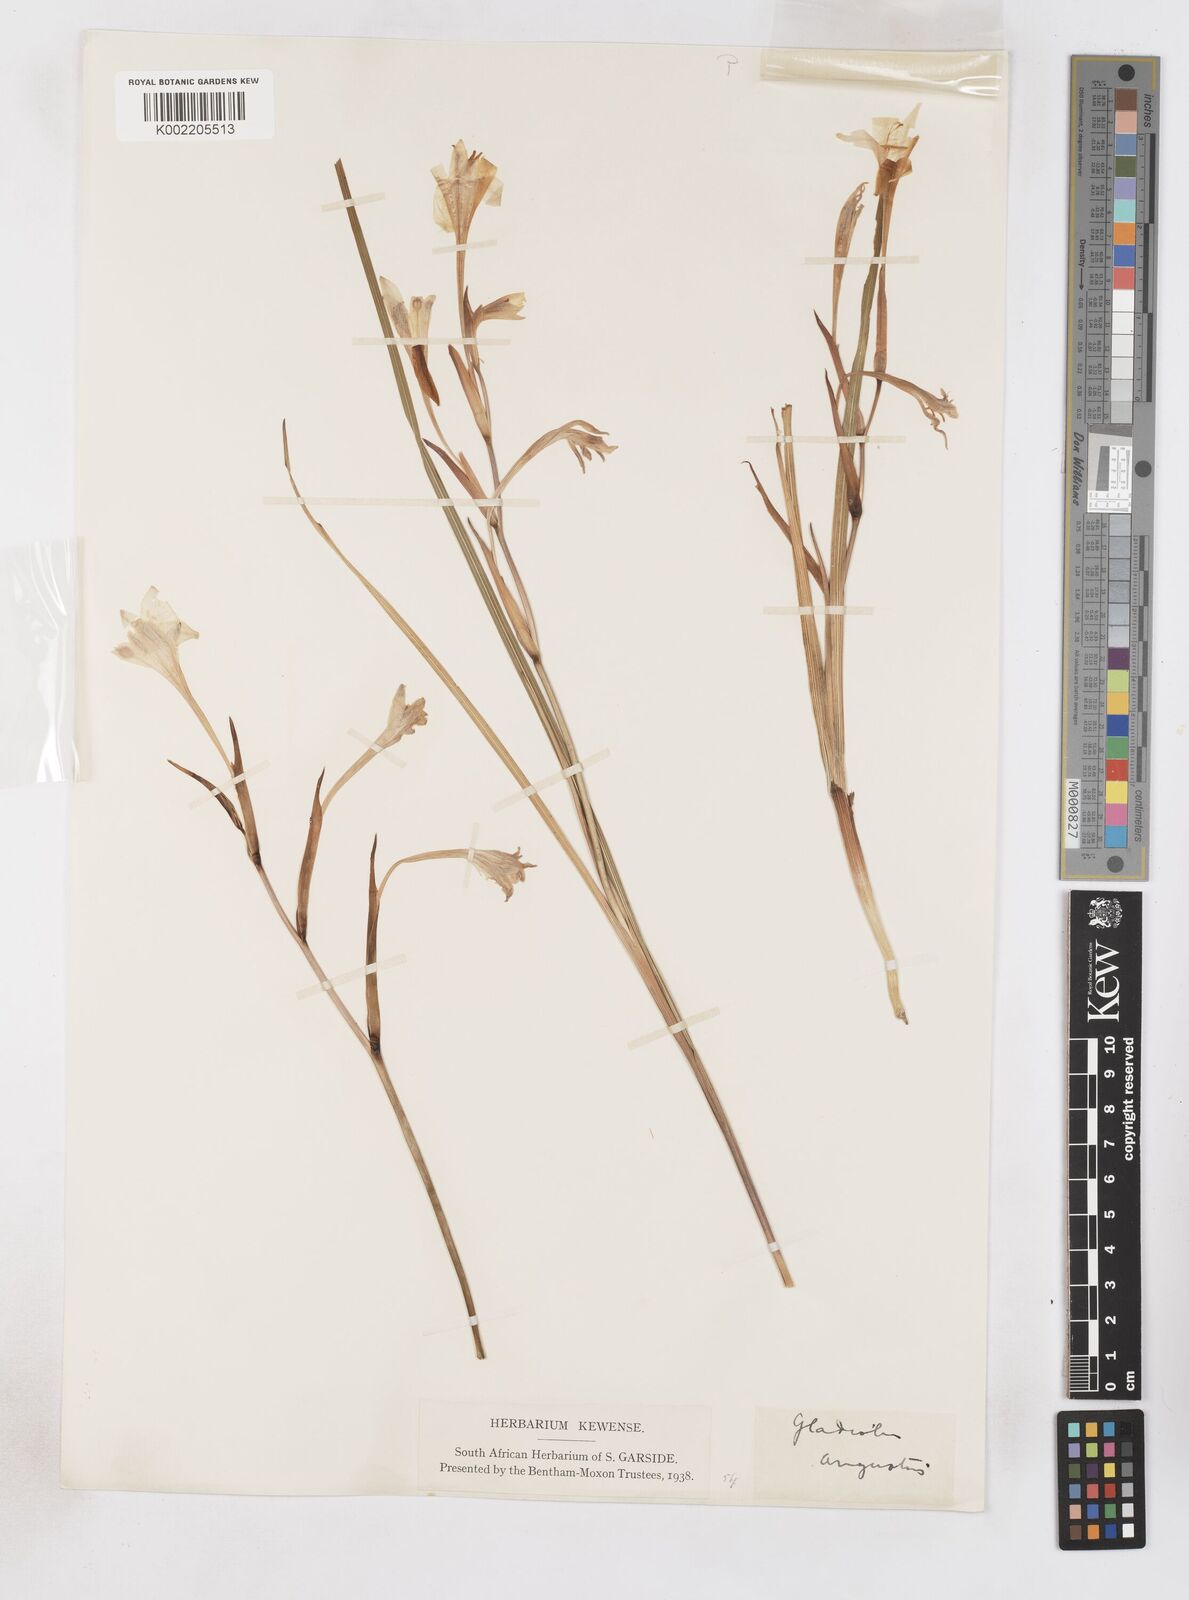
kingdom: Plantae
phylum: Tracheophyta
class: Liliopsida
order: Asparagales
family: Iridaceae
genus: Gladiolus
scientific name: Gladiolus angustus
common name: Painted-lady
